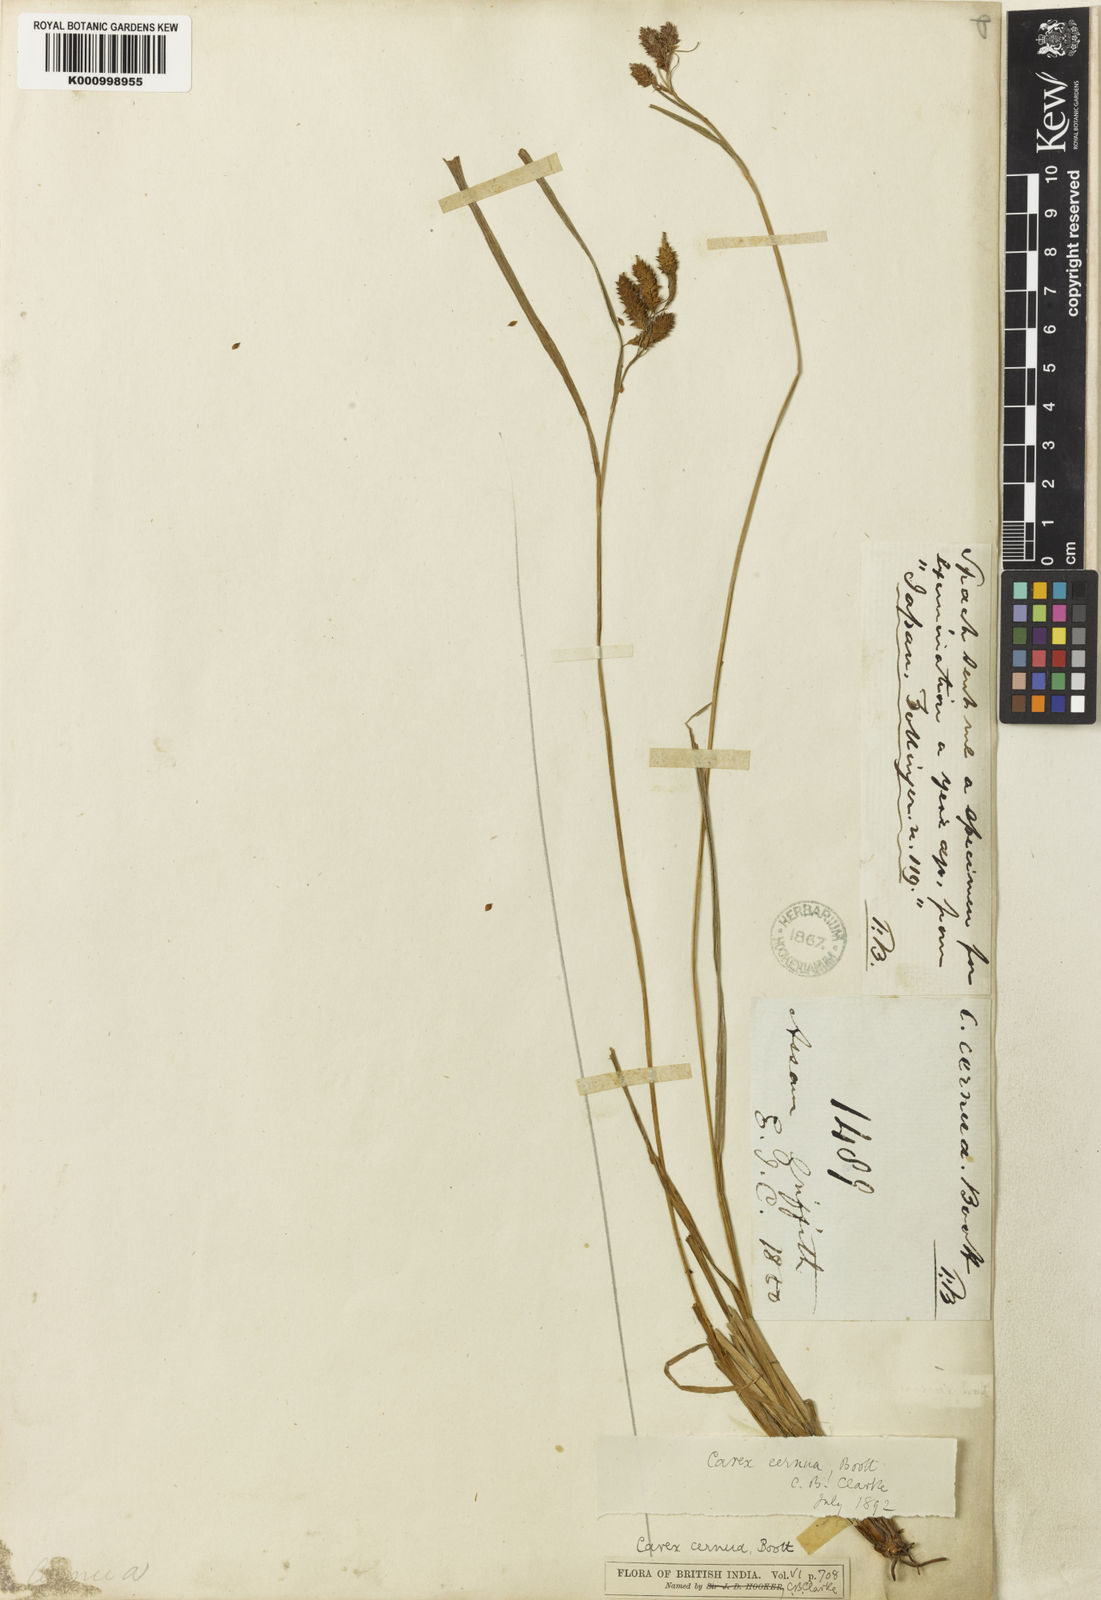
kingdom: Plantae
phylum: Tracheophyta
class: Liliopsida
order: Poales
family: Cyperaceae
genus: Carex
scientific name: Carex
